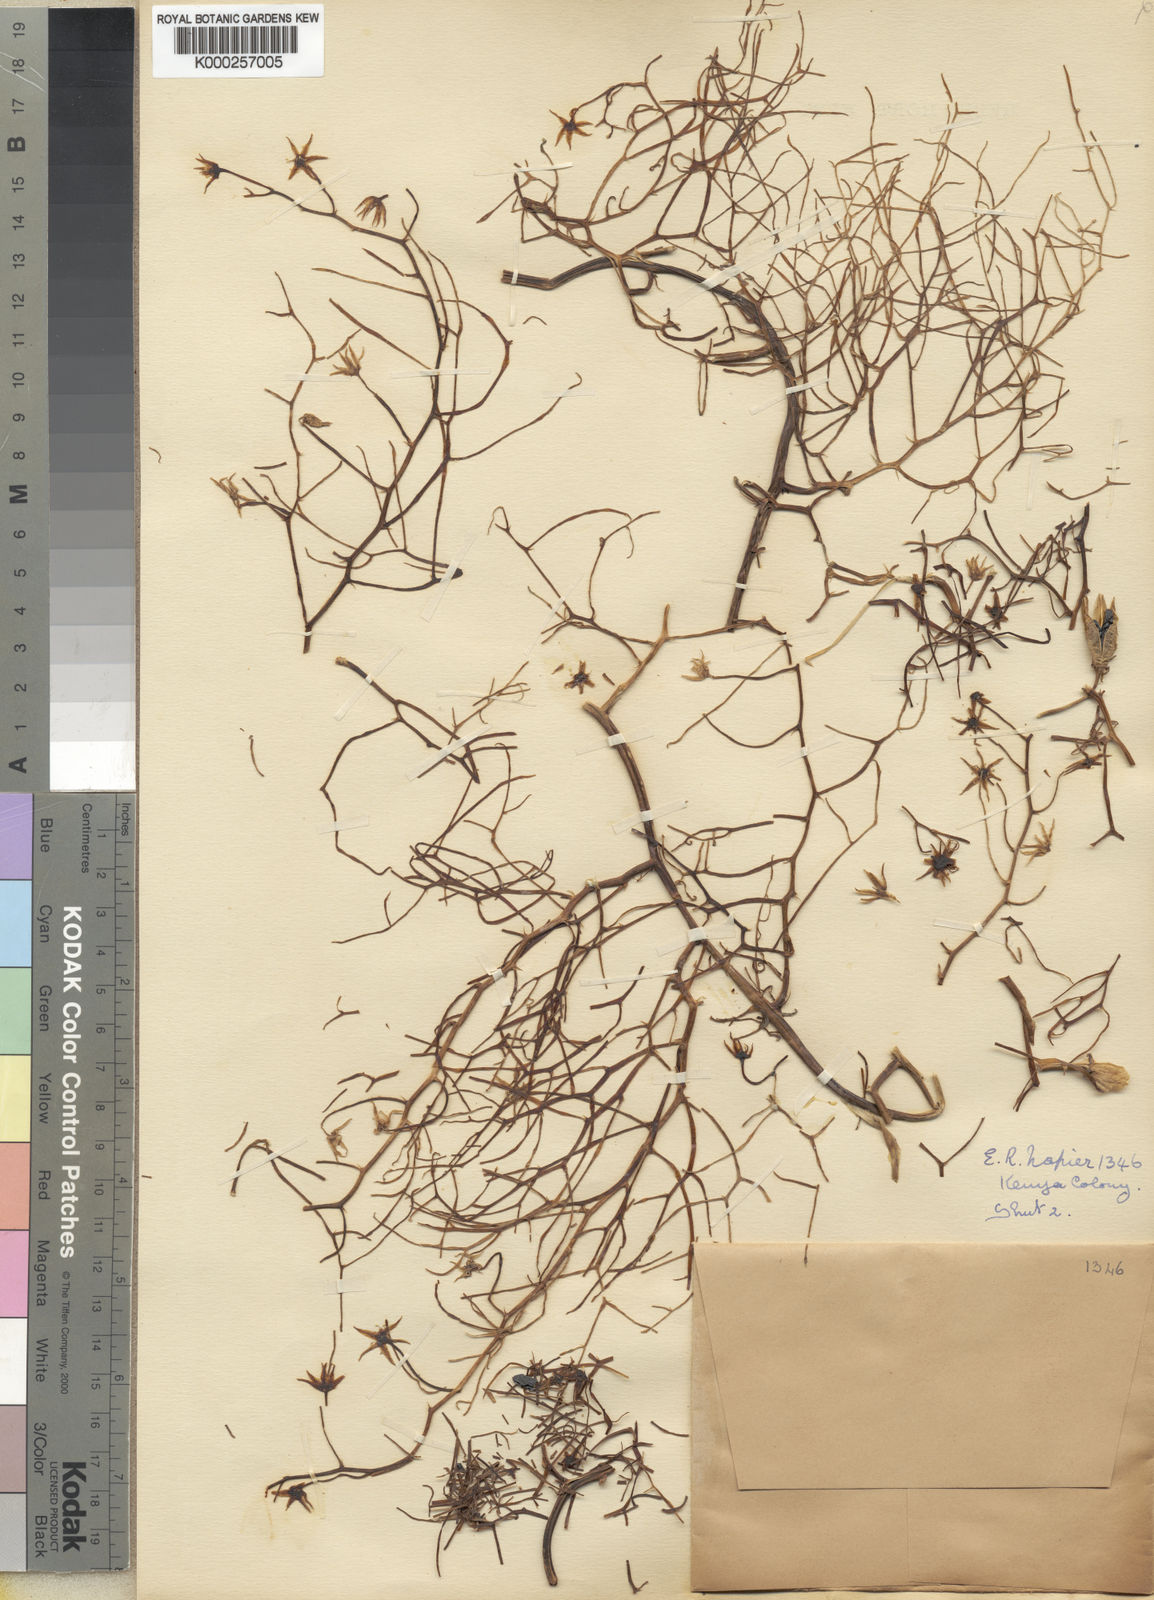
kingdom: Plantae
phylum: Tracheophyta
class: Liliopsida
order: Asparagales
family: Asparagaceae
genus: Bowiea
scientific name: Bowiea volubilis
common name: Climbing-onion
